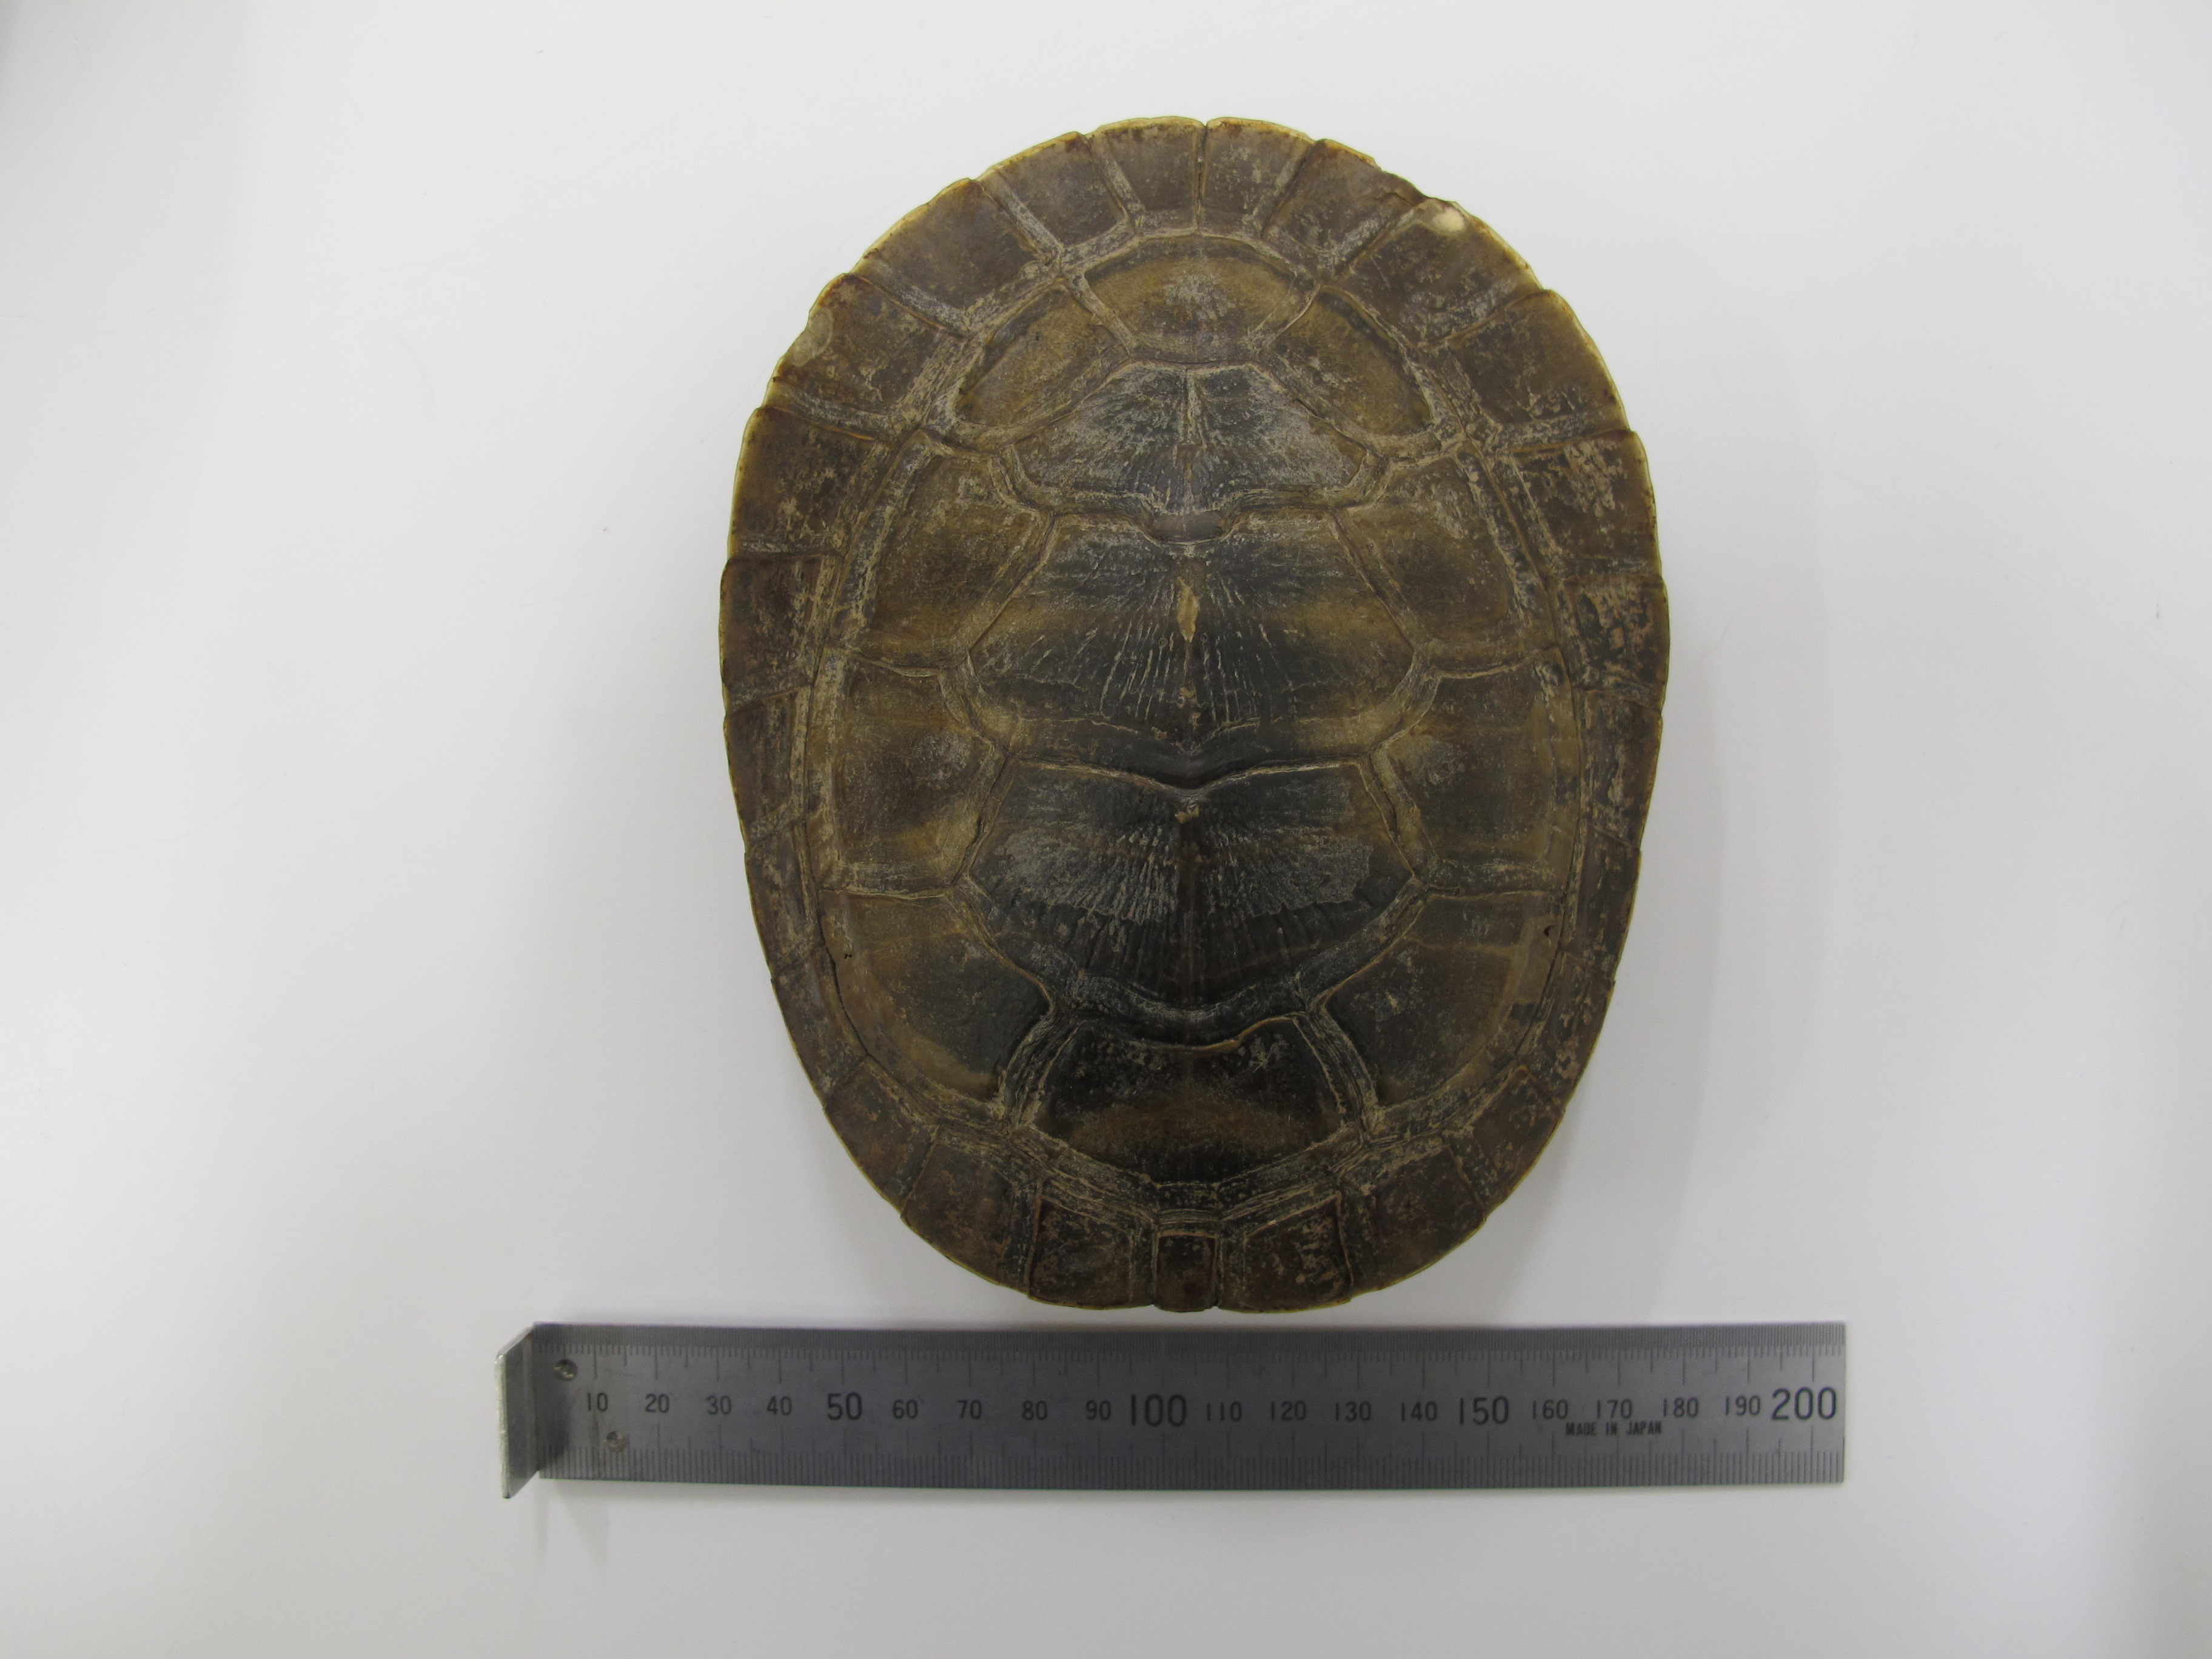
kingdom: Animalia
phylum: Chordata
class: Testudines
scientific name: Testudines
